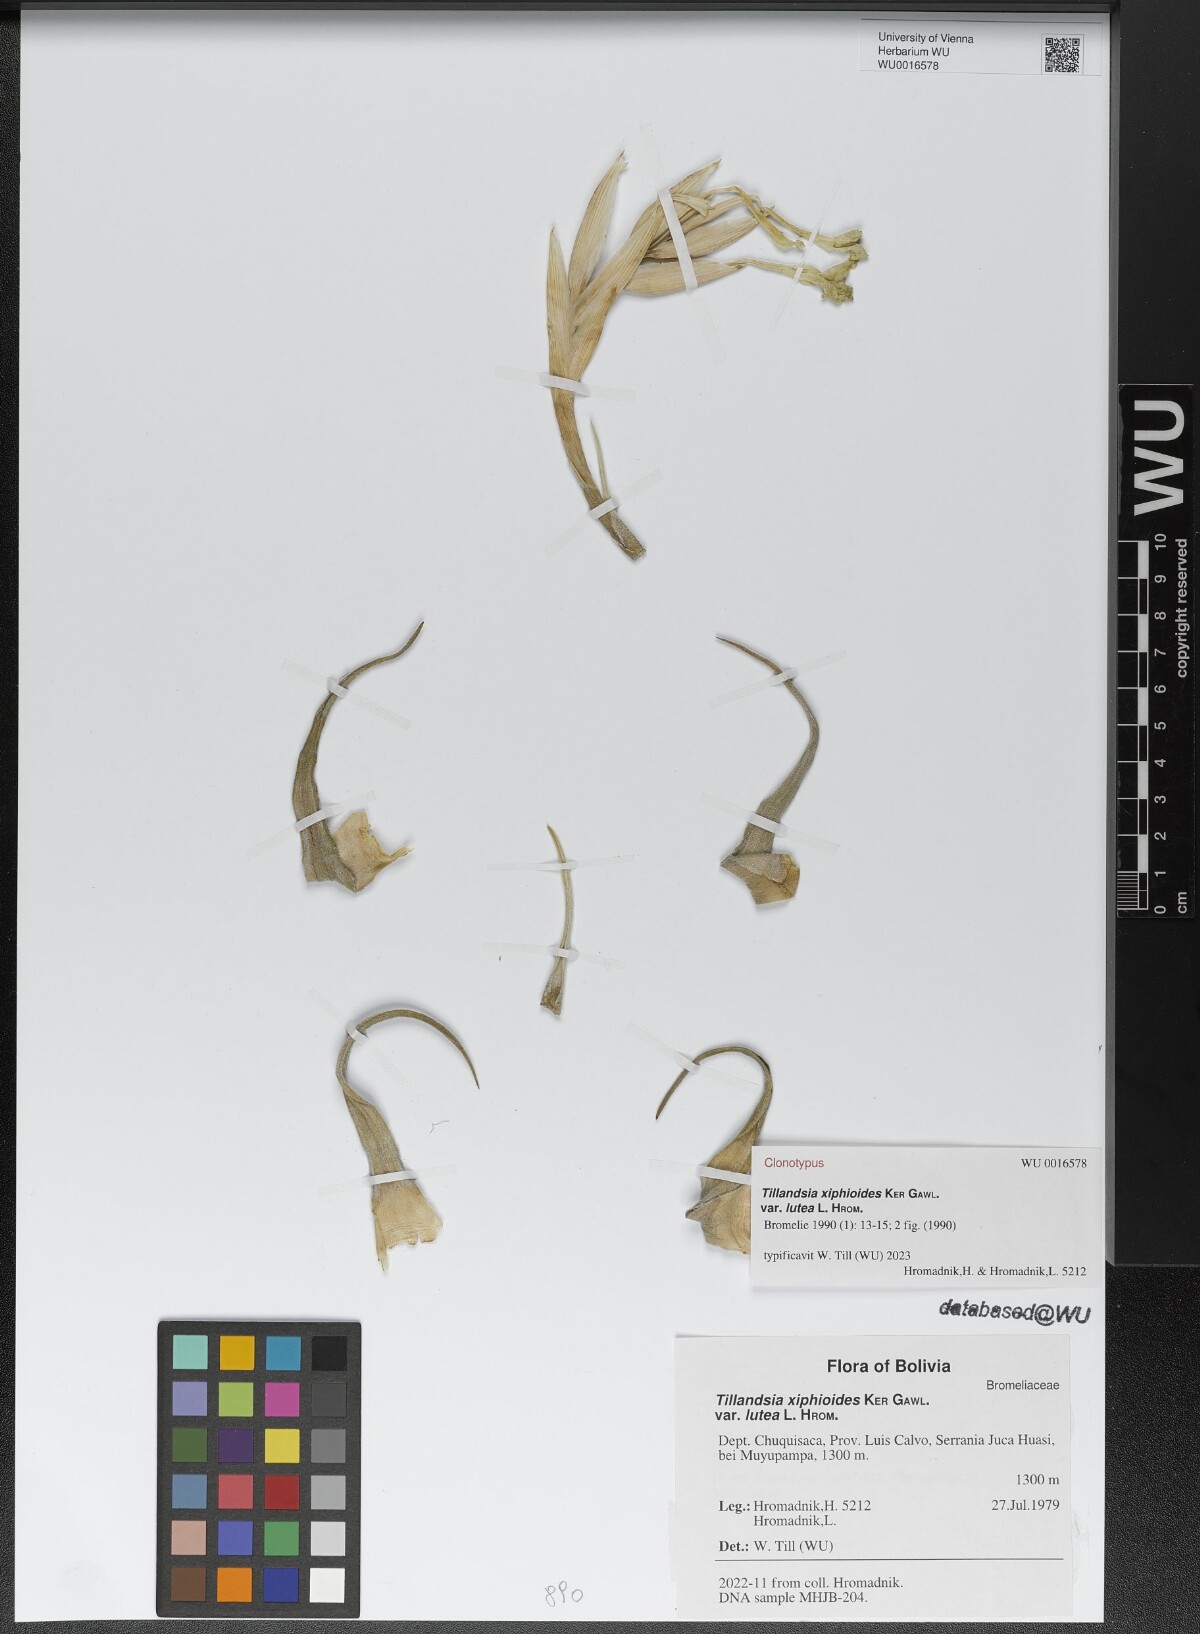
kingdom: Plantae
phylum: Tracheophyta
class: Liliopsida
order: Poales
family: Bromeliaceae
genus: Tillandsia
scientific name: Tillandsia xiphioides
